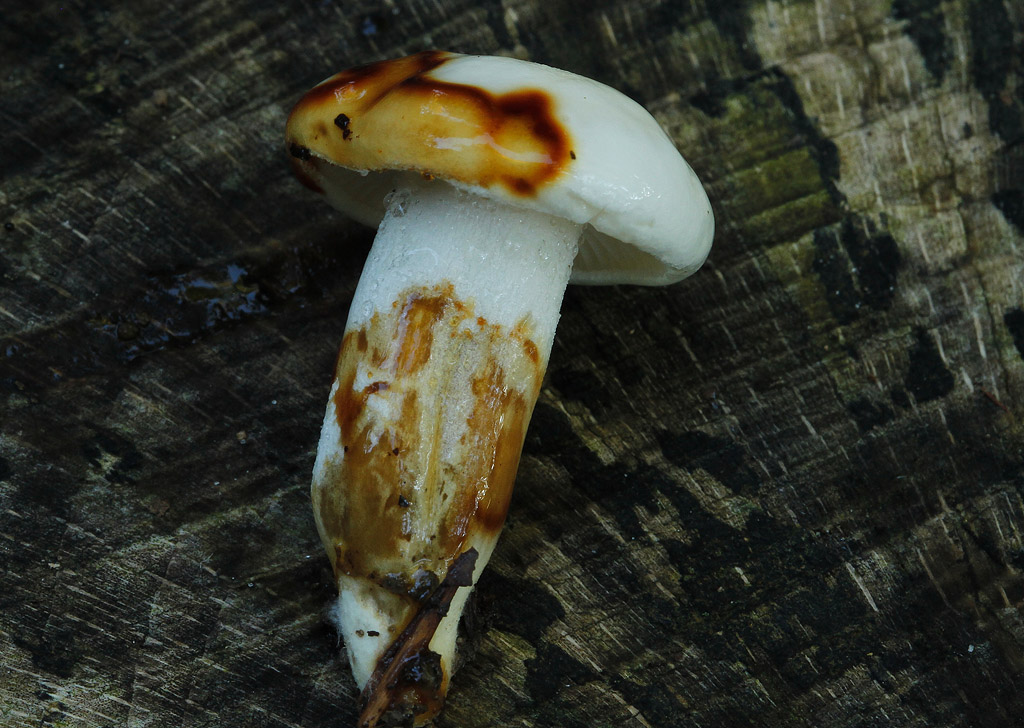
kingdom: Fungi
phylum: Basidiomycota
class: Agaricomycetes
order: Agaricales
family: Hygrophoraceae
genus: Hygrophorus
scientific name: Hygrophorus discoxanthus
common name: ildelugtende sneglehat
